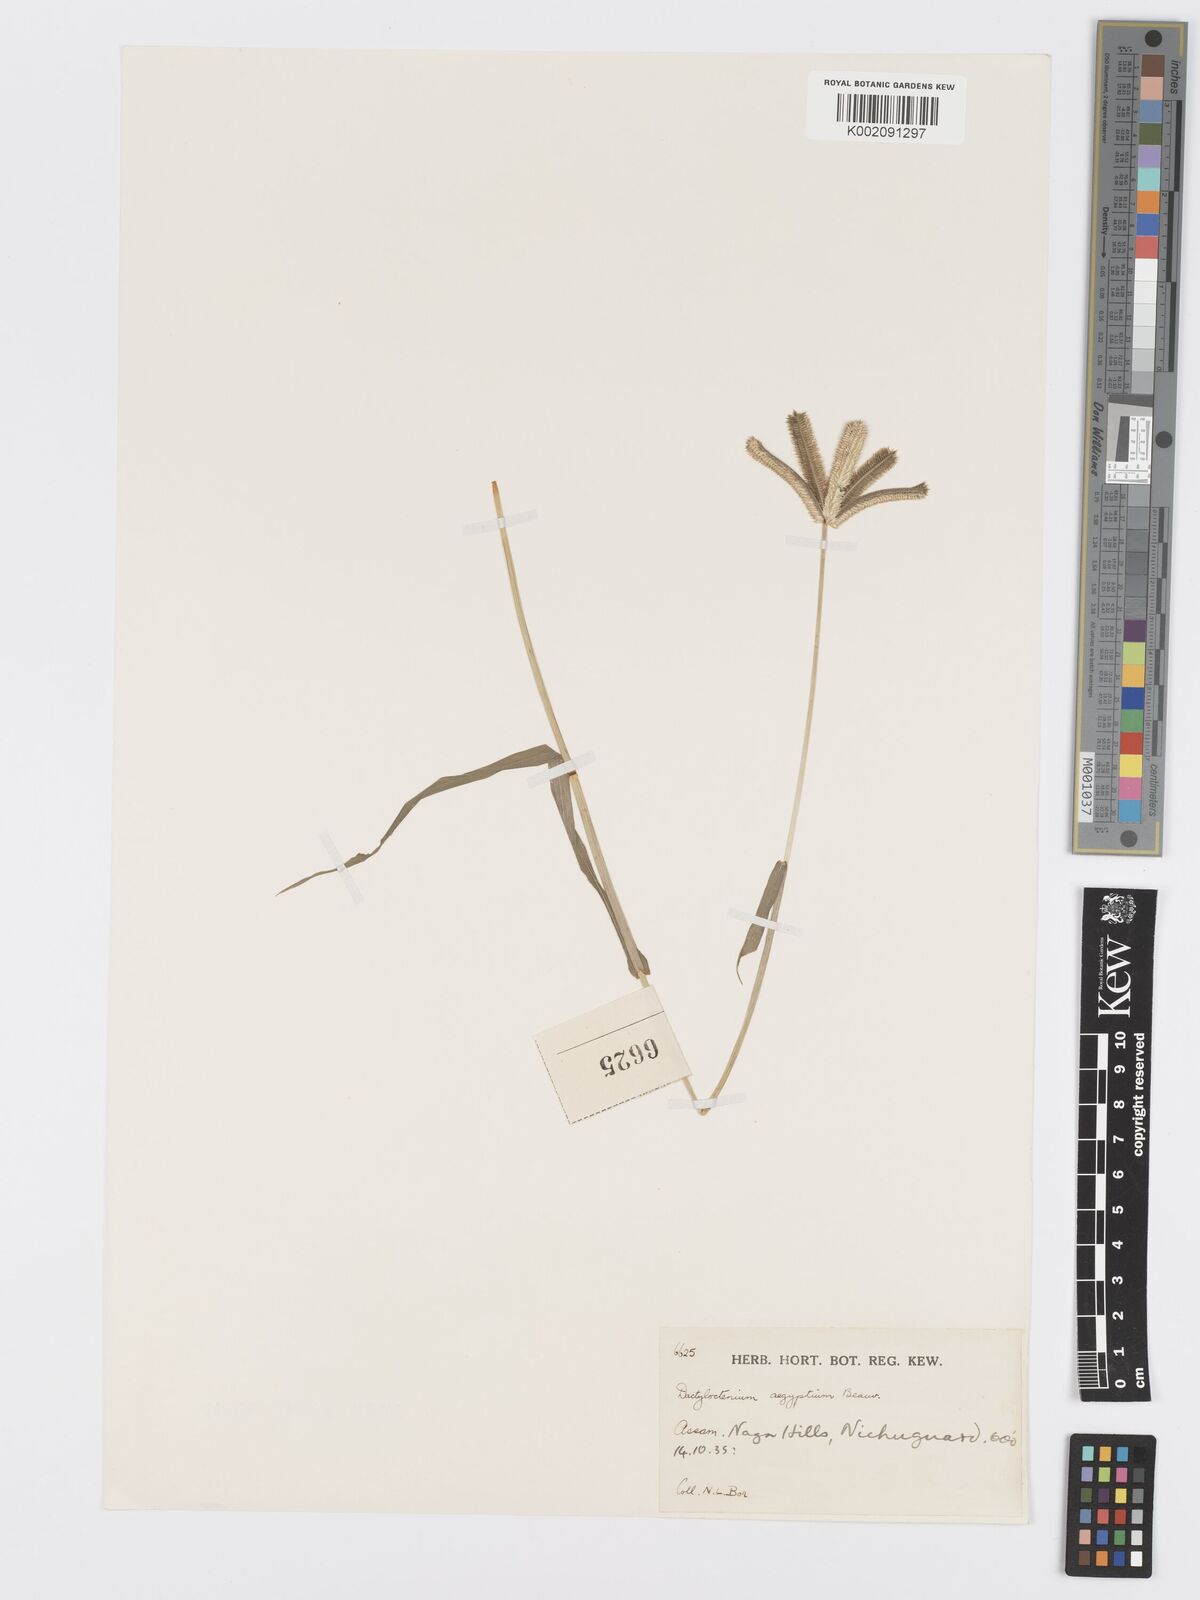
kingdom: Plantae
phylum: Tracheophyta
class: Liliopsida
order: Poales
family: Poaceae
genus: Dactyloctenium
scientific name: Dactyloctenium aegyptium
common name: Egyptian grass
